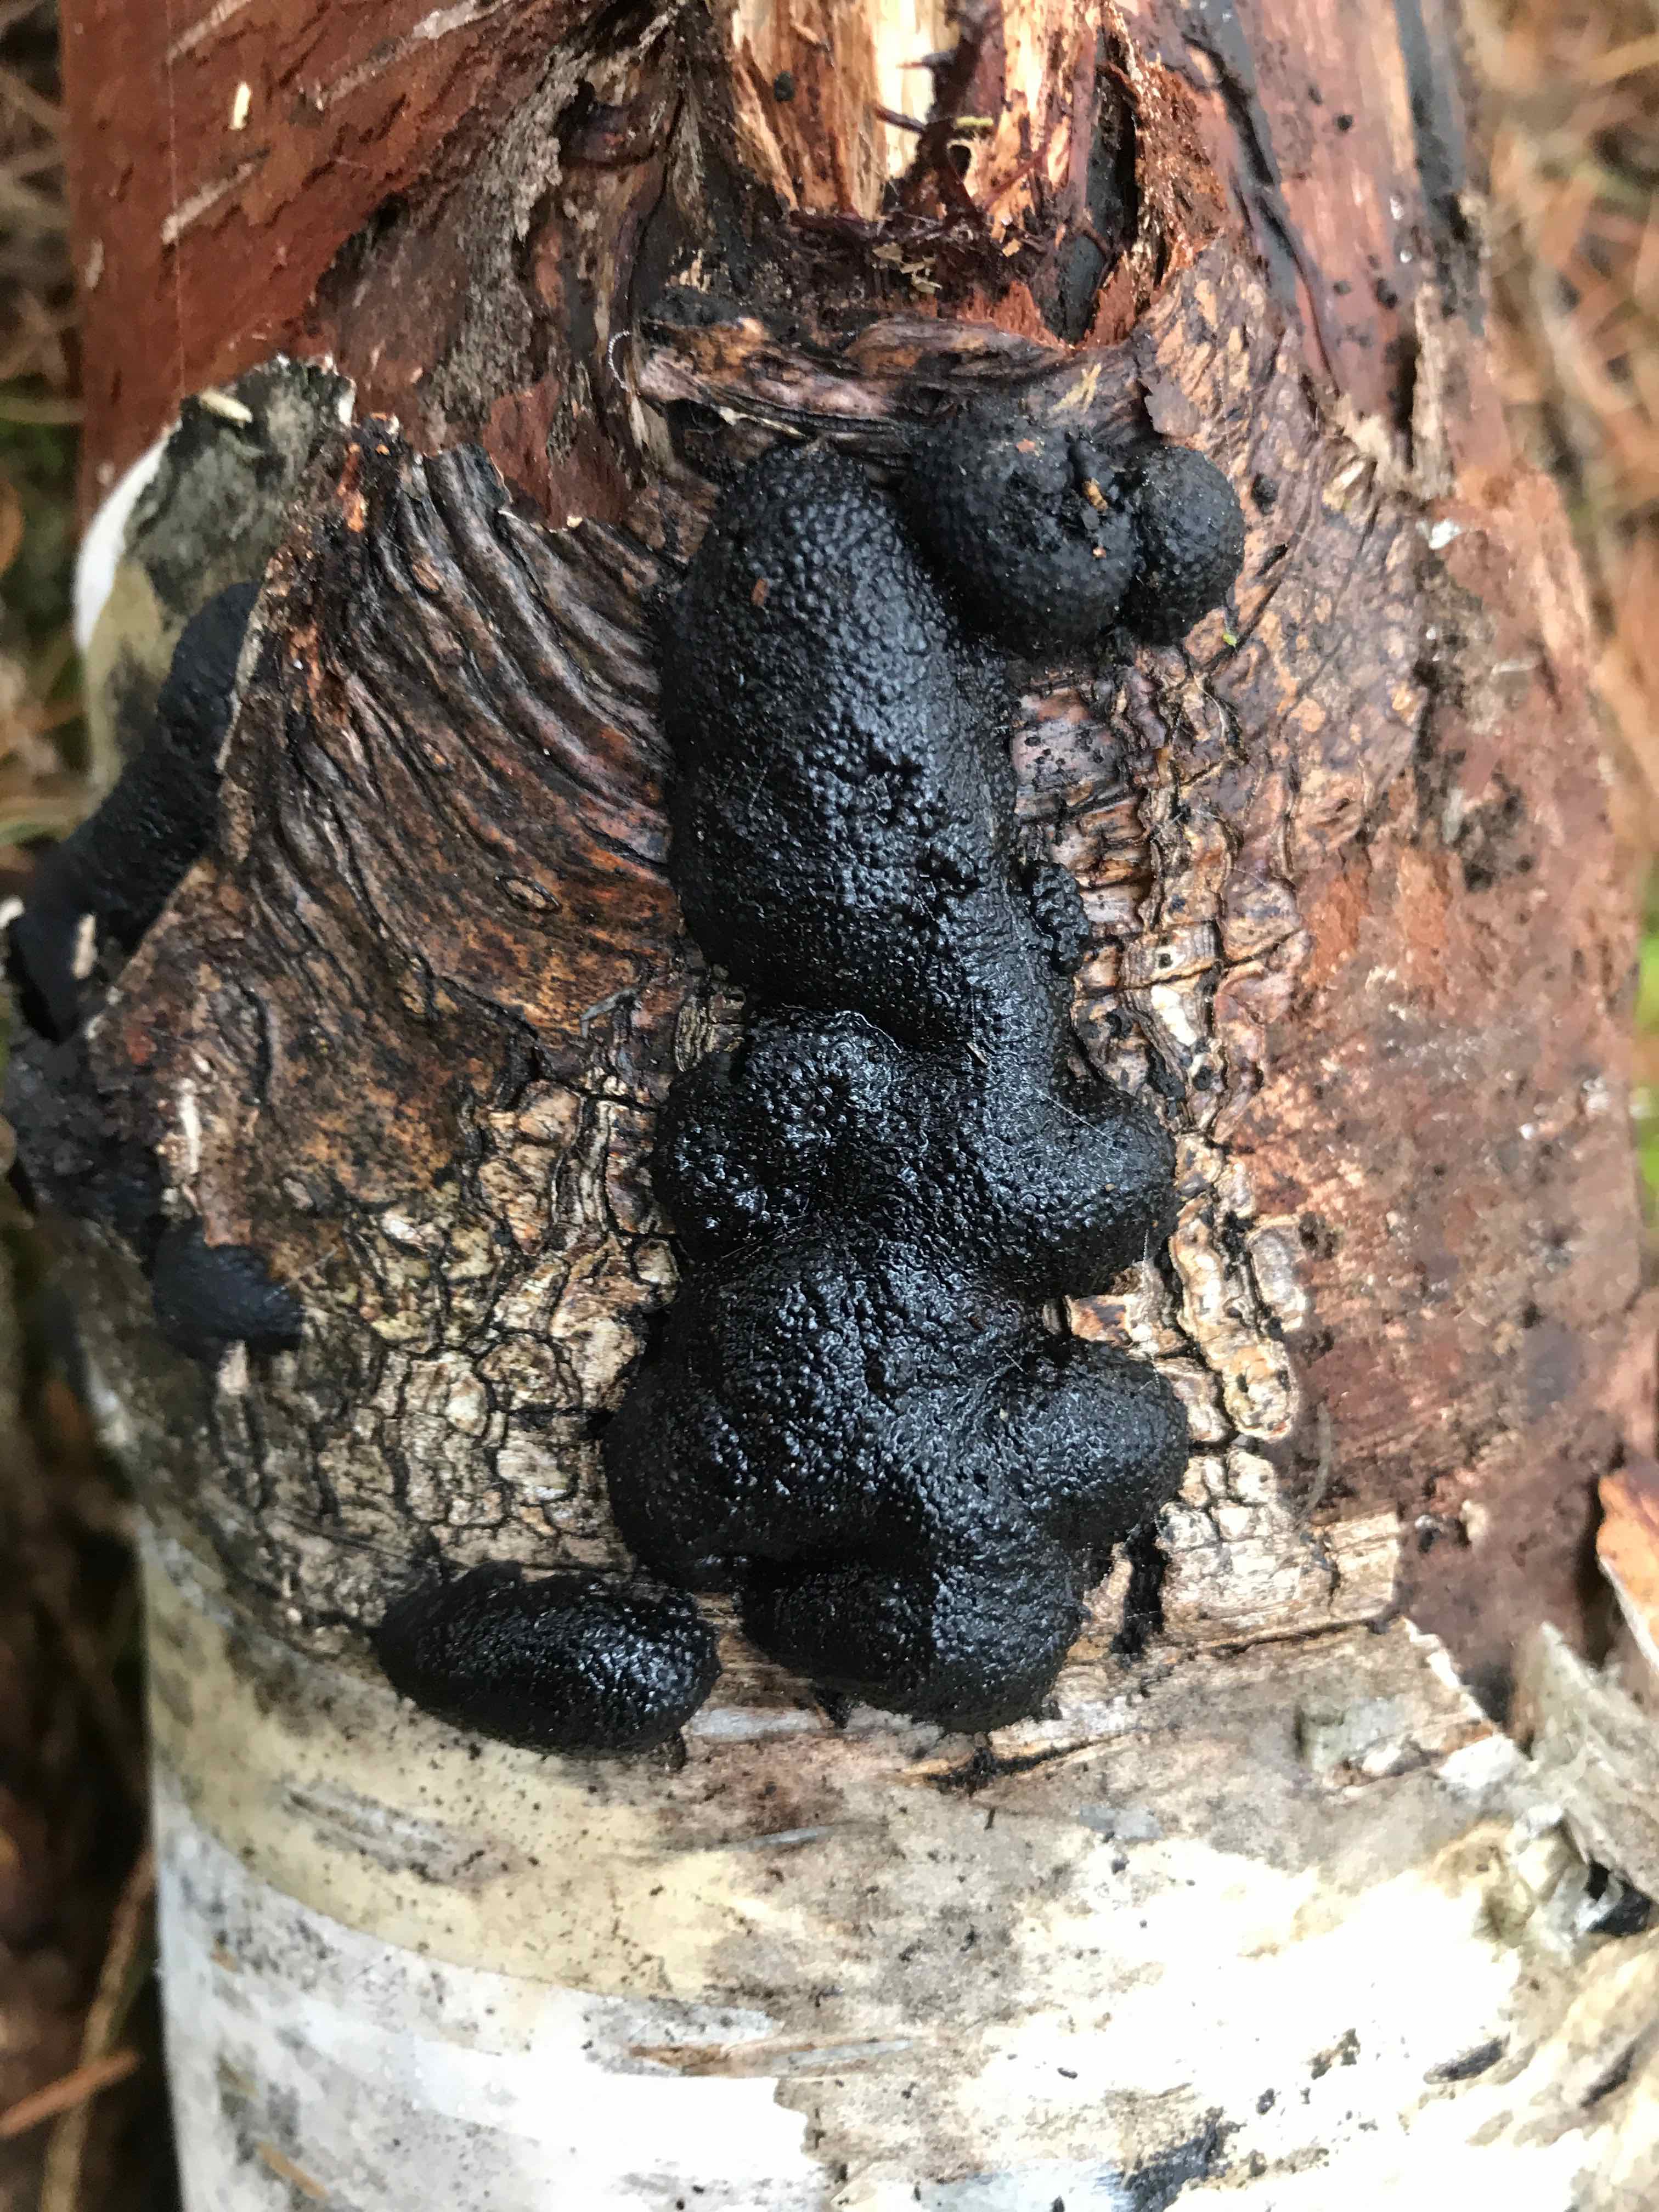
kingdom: Fungi
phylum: Ascomycota
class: Sordariomycetes
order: Xylariales
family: Hypoxylaceae
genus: Jackrogersella
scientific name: Jackrogersella multiformis
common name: foranderlig kulbær
